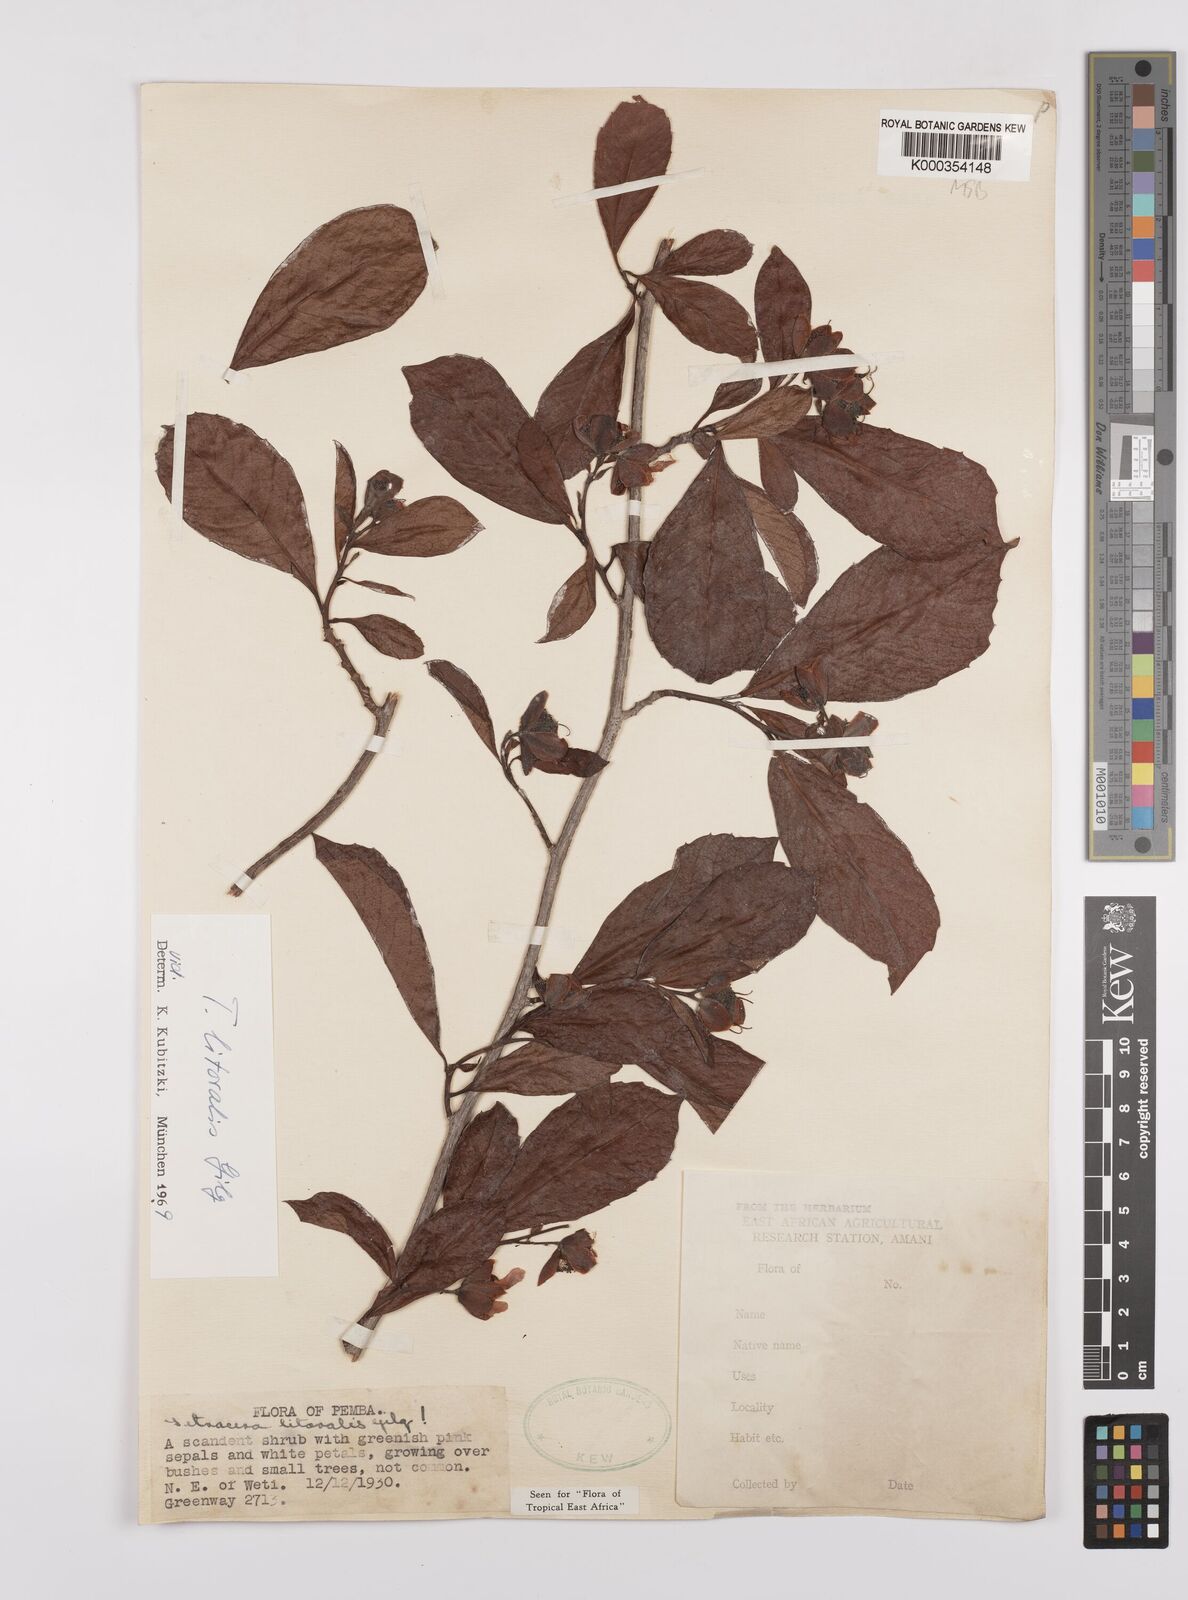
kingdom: Plantae
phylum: Tracheophyta
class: Magnoliopsida
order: Dilleniales
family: Dilleniaceae
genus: Tetracera
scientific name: Tetracera litoralis
